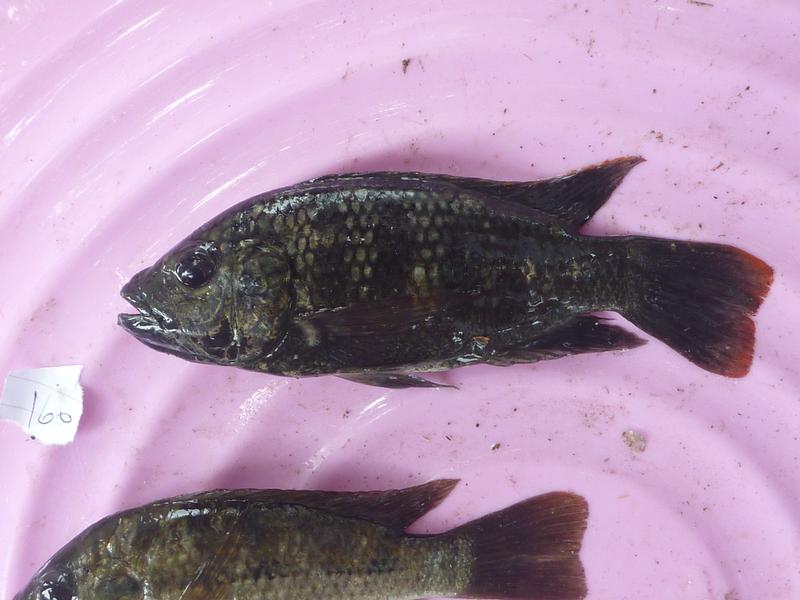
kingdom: Animalia
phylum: Chordata
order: Perciformes
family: Cichlidae
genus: Oreochromis
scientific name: Oreochromis shiranus
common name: Chilwa tilapia
